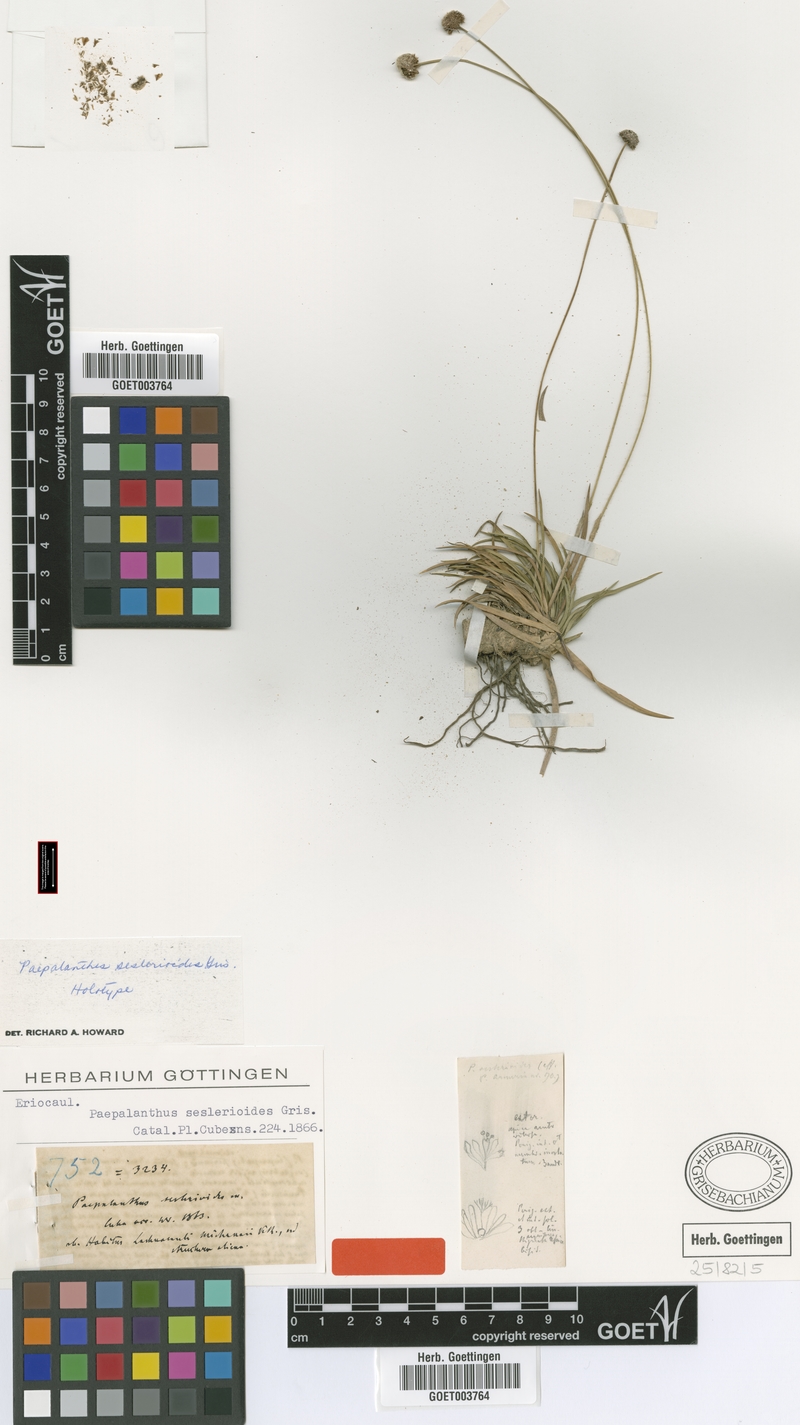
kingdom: Plantae
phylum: Tracheophyta
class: Liliopsida
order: Poales
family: Eriocaulaceae
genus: Paepalanthus
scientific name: Paepalanthus seslerioides
